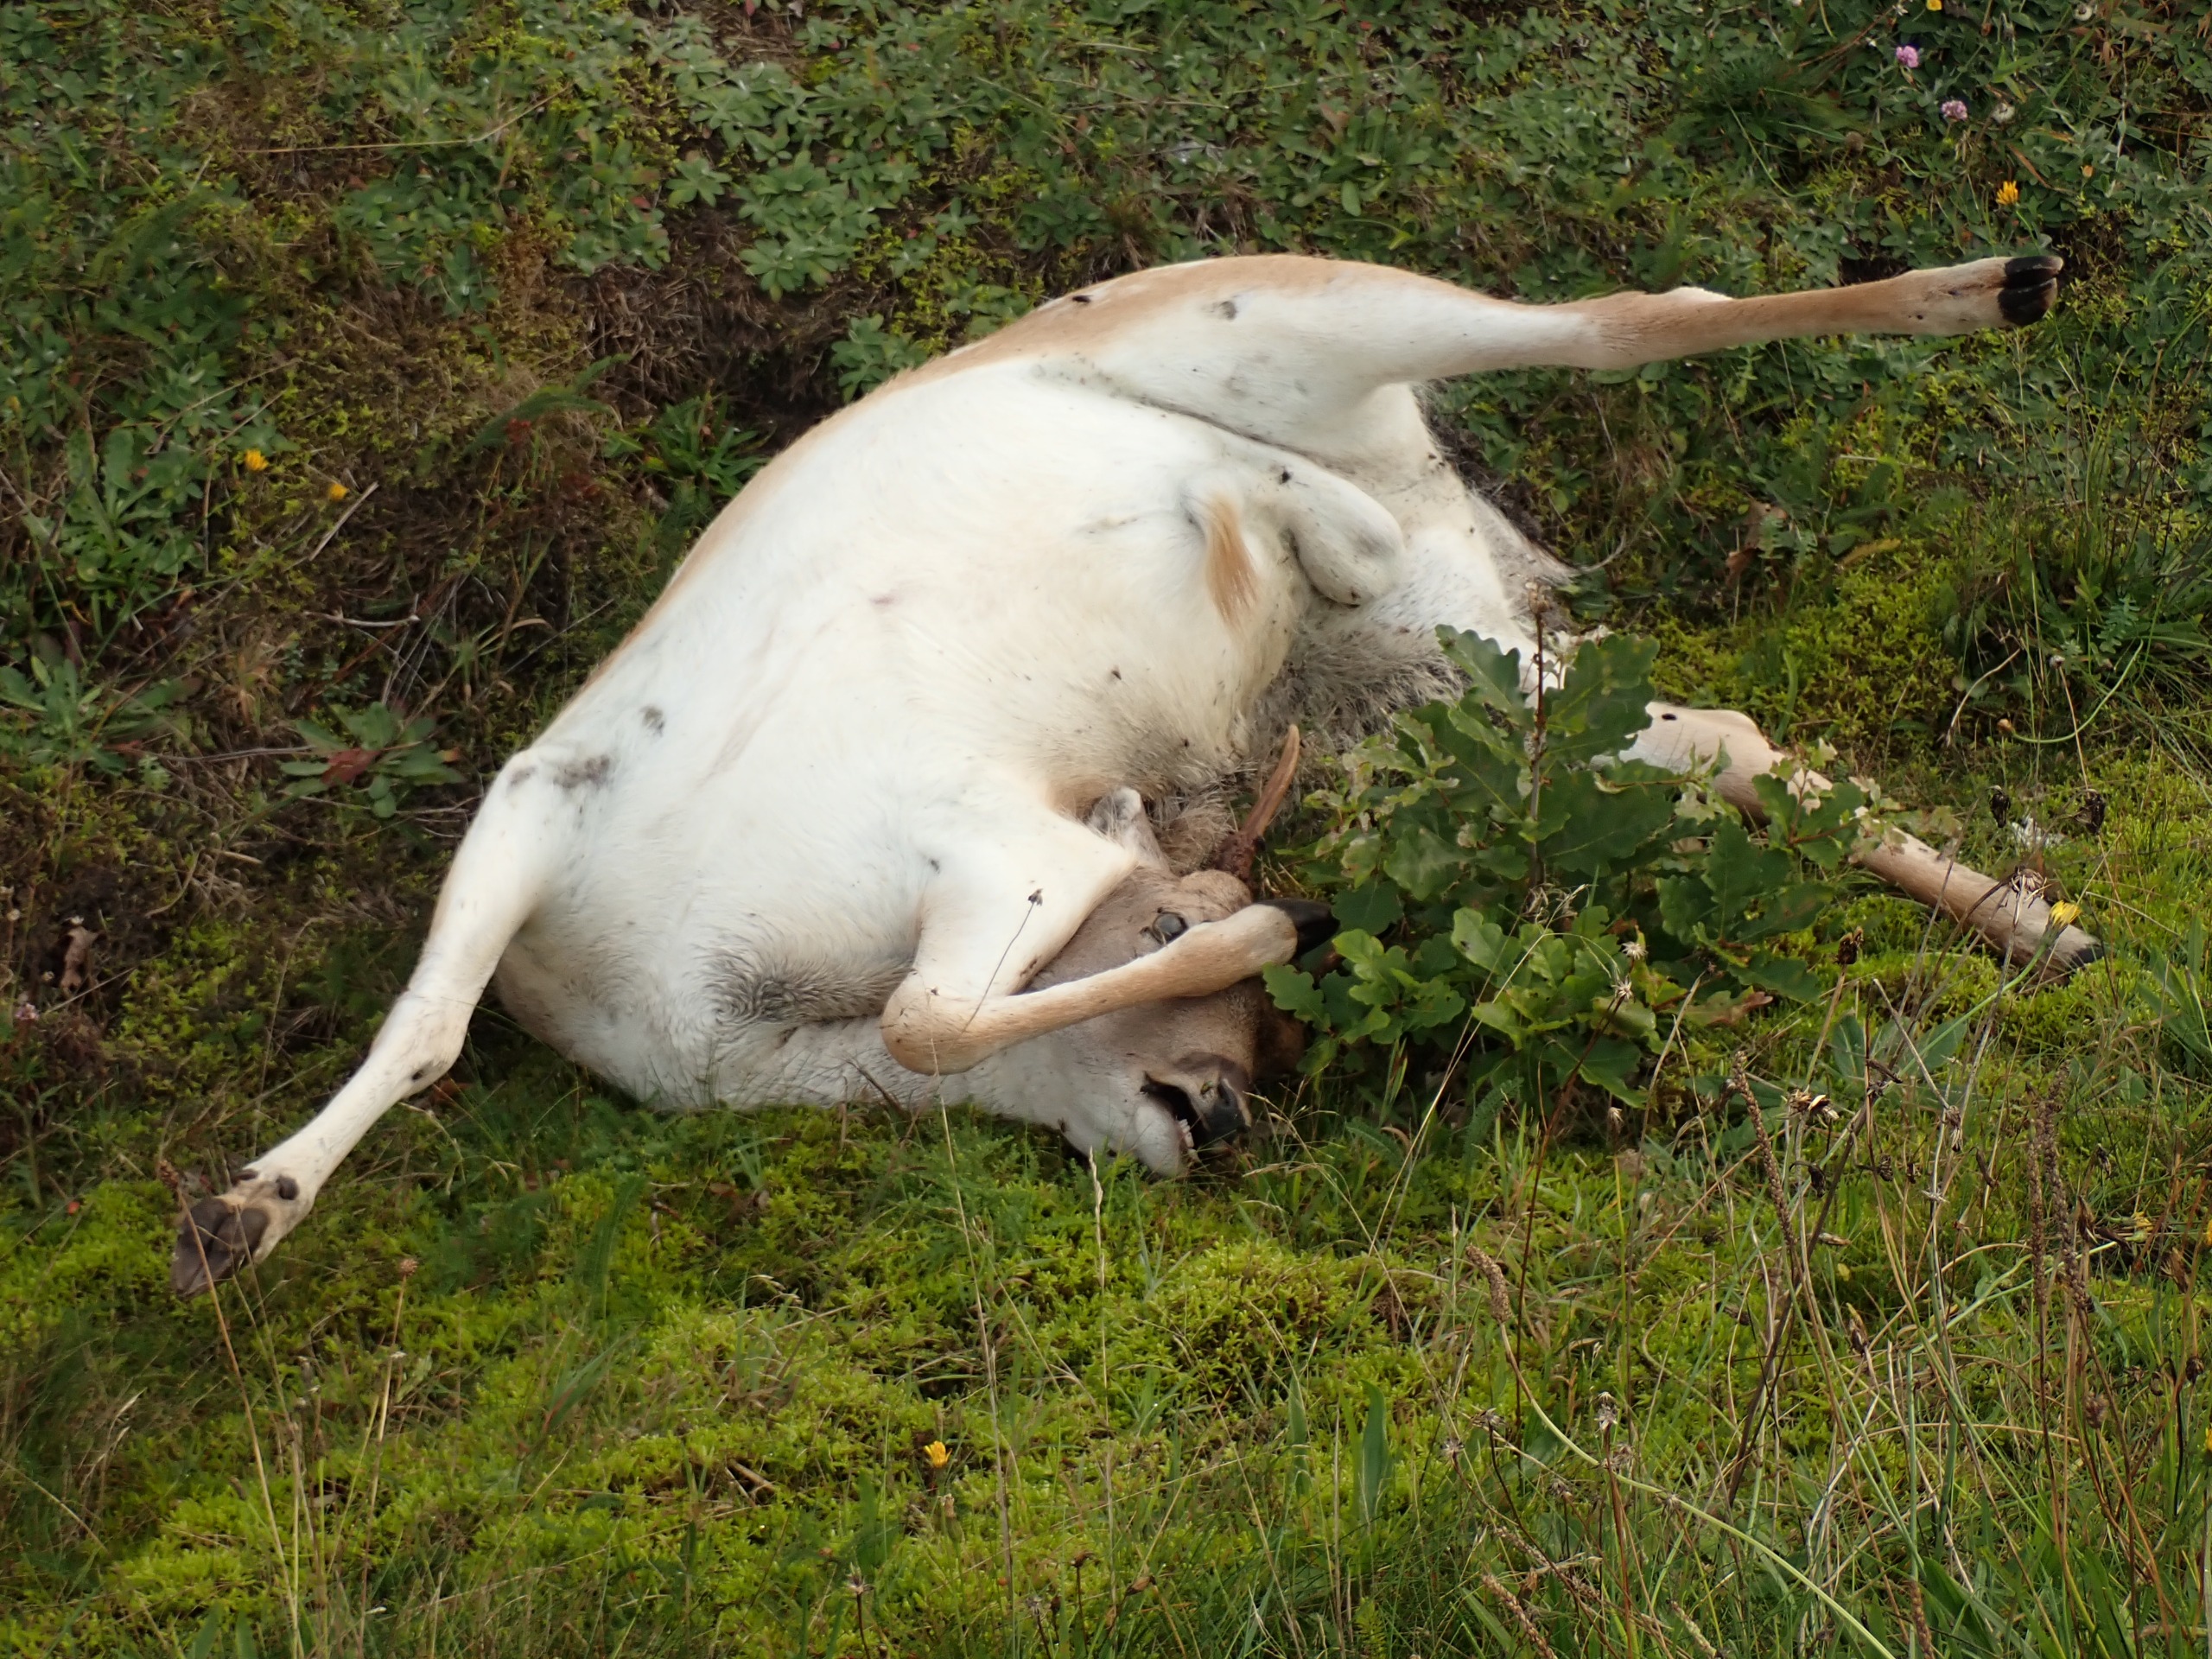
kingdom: Animalia
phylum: Chordata
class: Mammalia
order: Artiodactyla
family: Cervidae
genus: Dama
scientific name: Dama dama
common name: Dådyr
